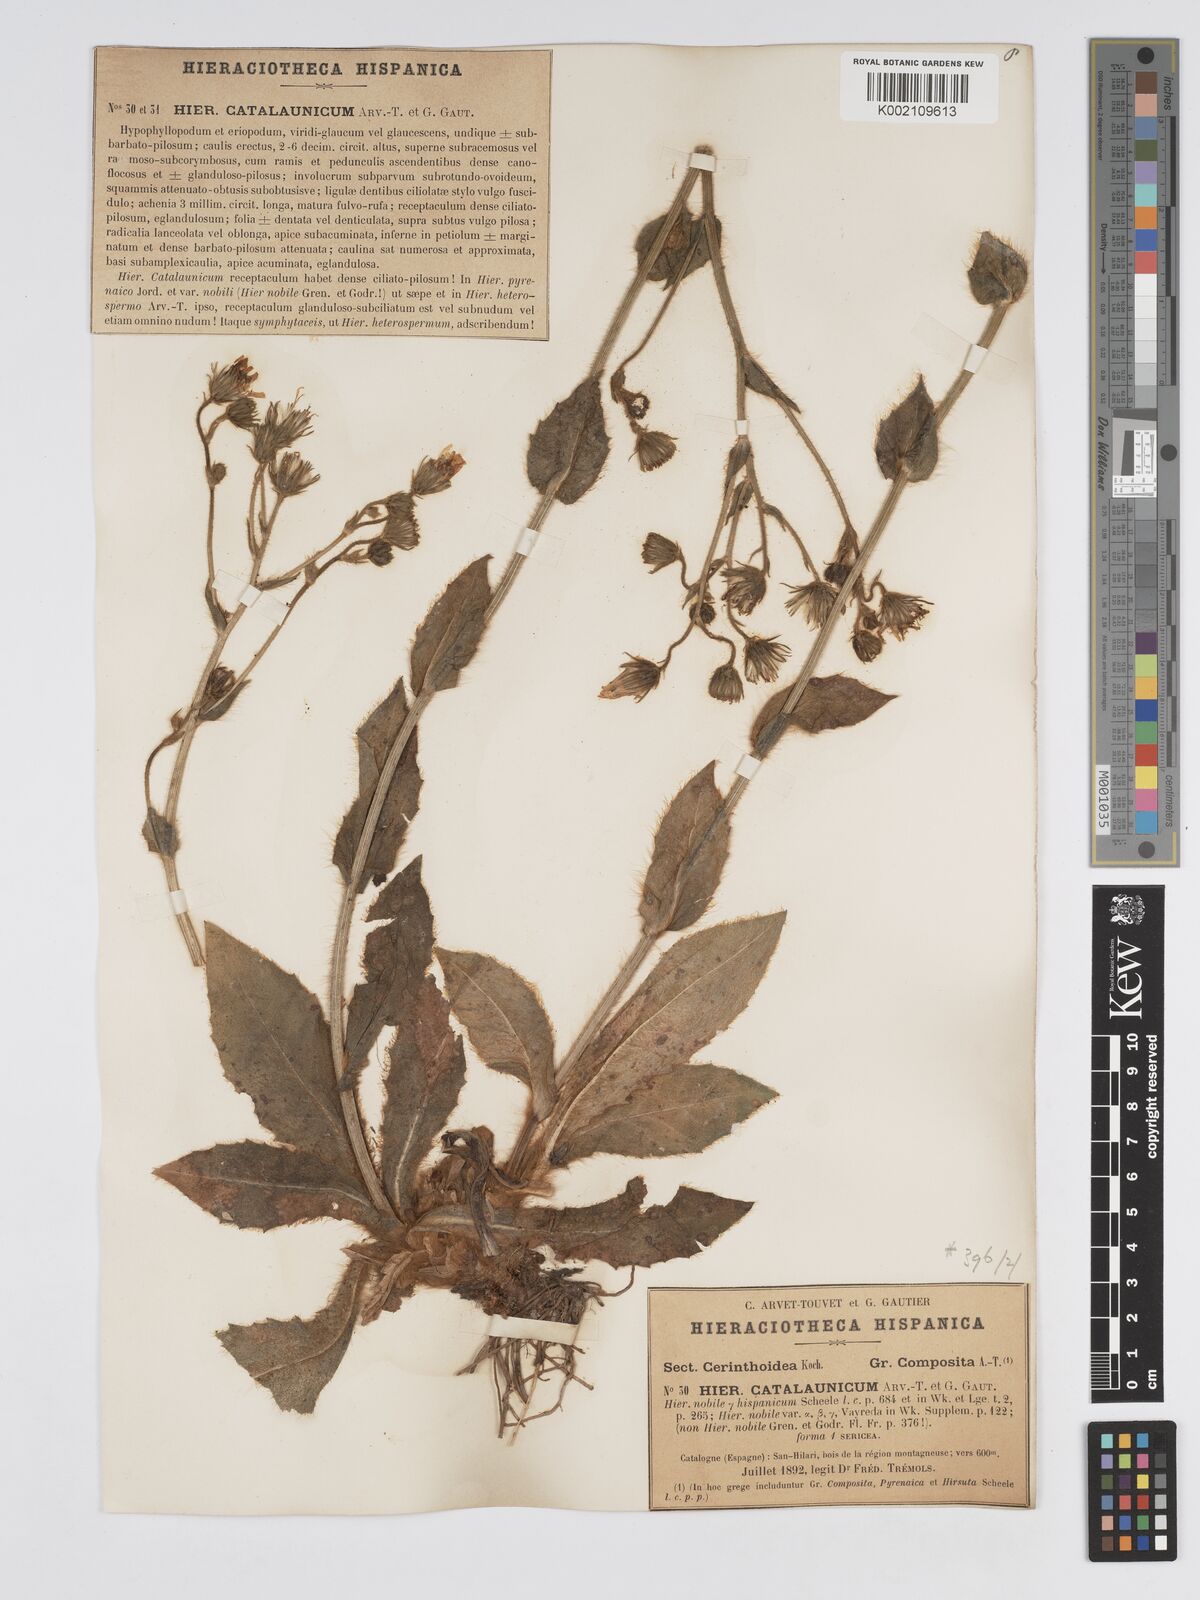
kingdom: Plantae
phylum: Tracheophyta
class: Magnoliopsida
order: Asterales
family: Asteraceae
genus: Hieracium
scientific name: Hieracium compositum
